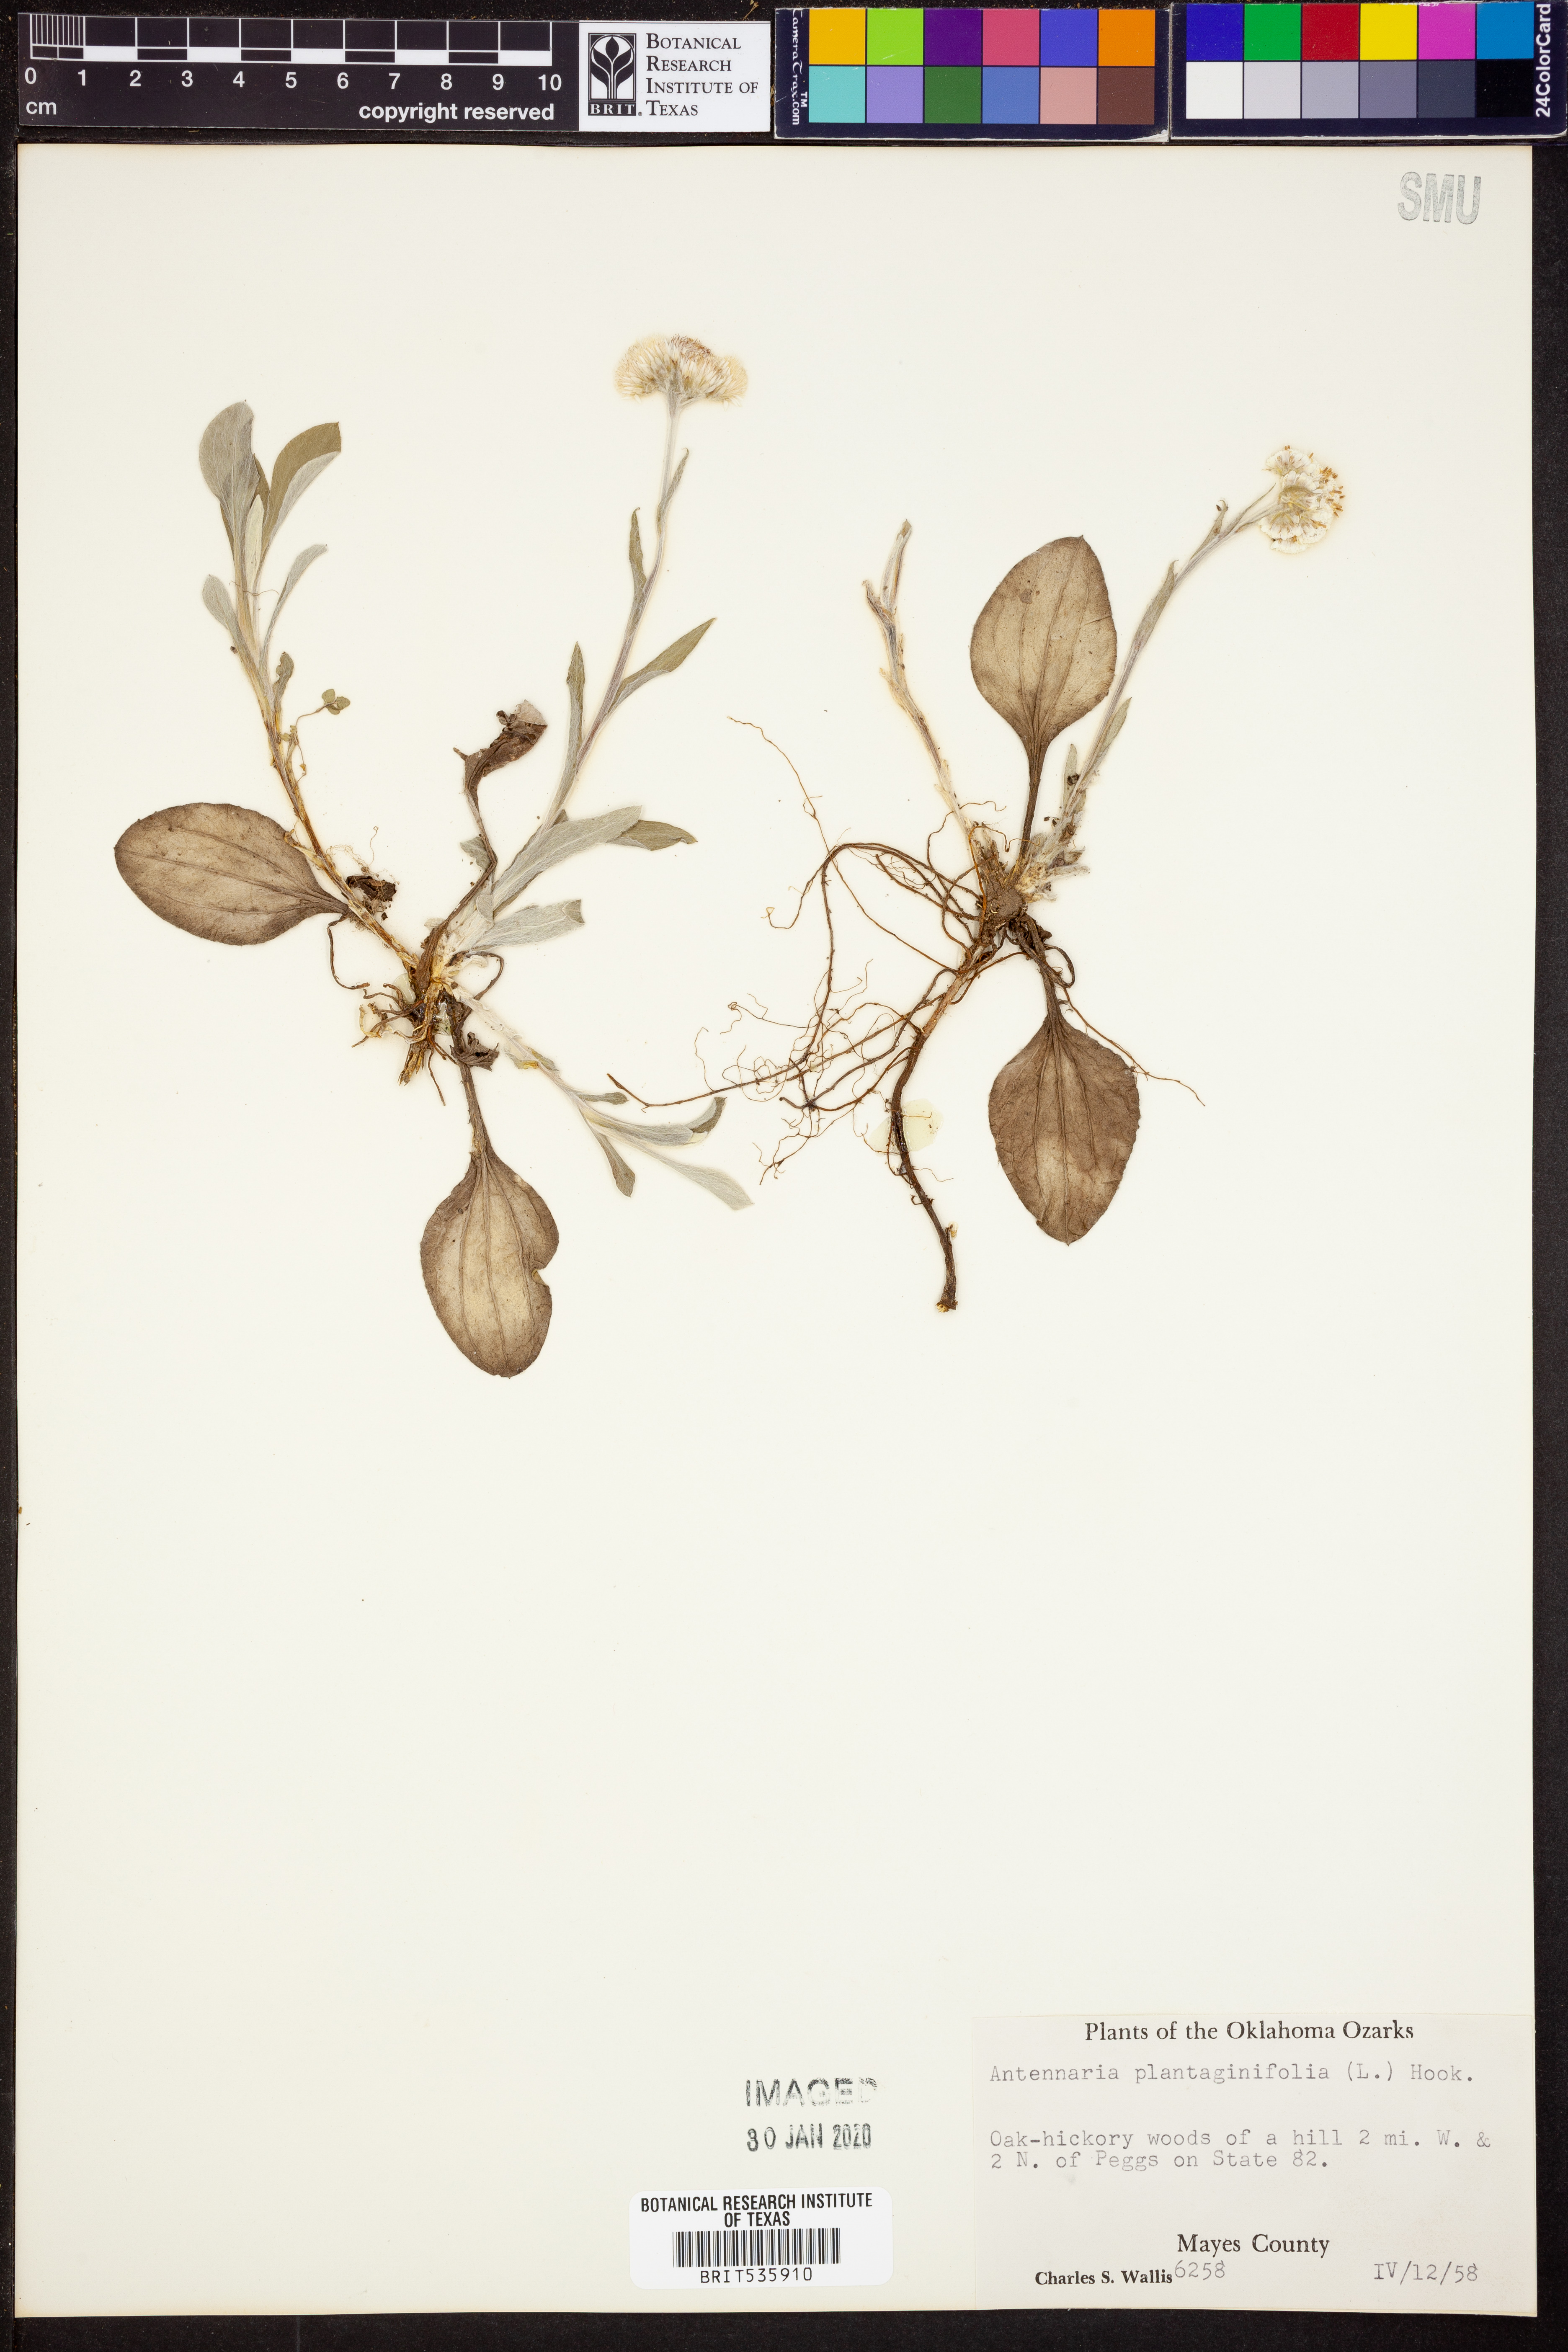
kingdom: Plantae
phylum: Tracheophyta
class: Magnoliopsida
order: Asterales
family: Asteraceae
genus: Antennaria
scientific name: Antennaria plantaginifolia
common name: Plantain-leaved pussytoes
